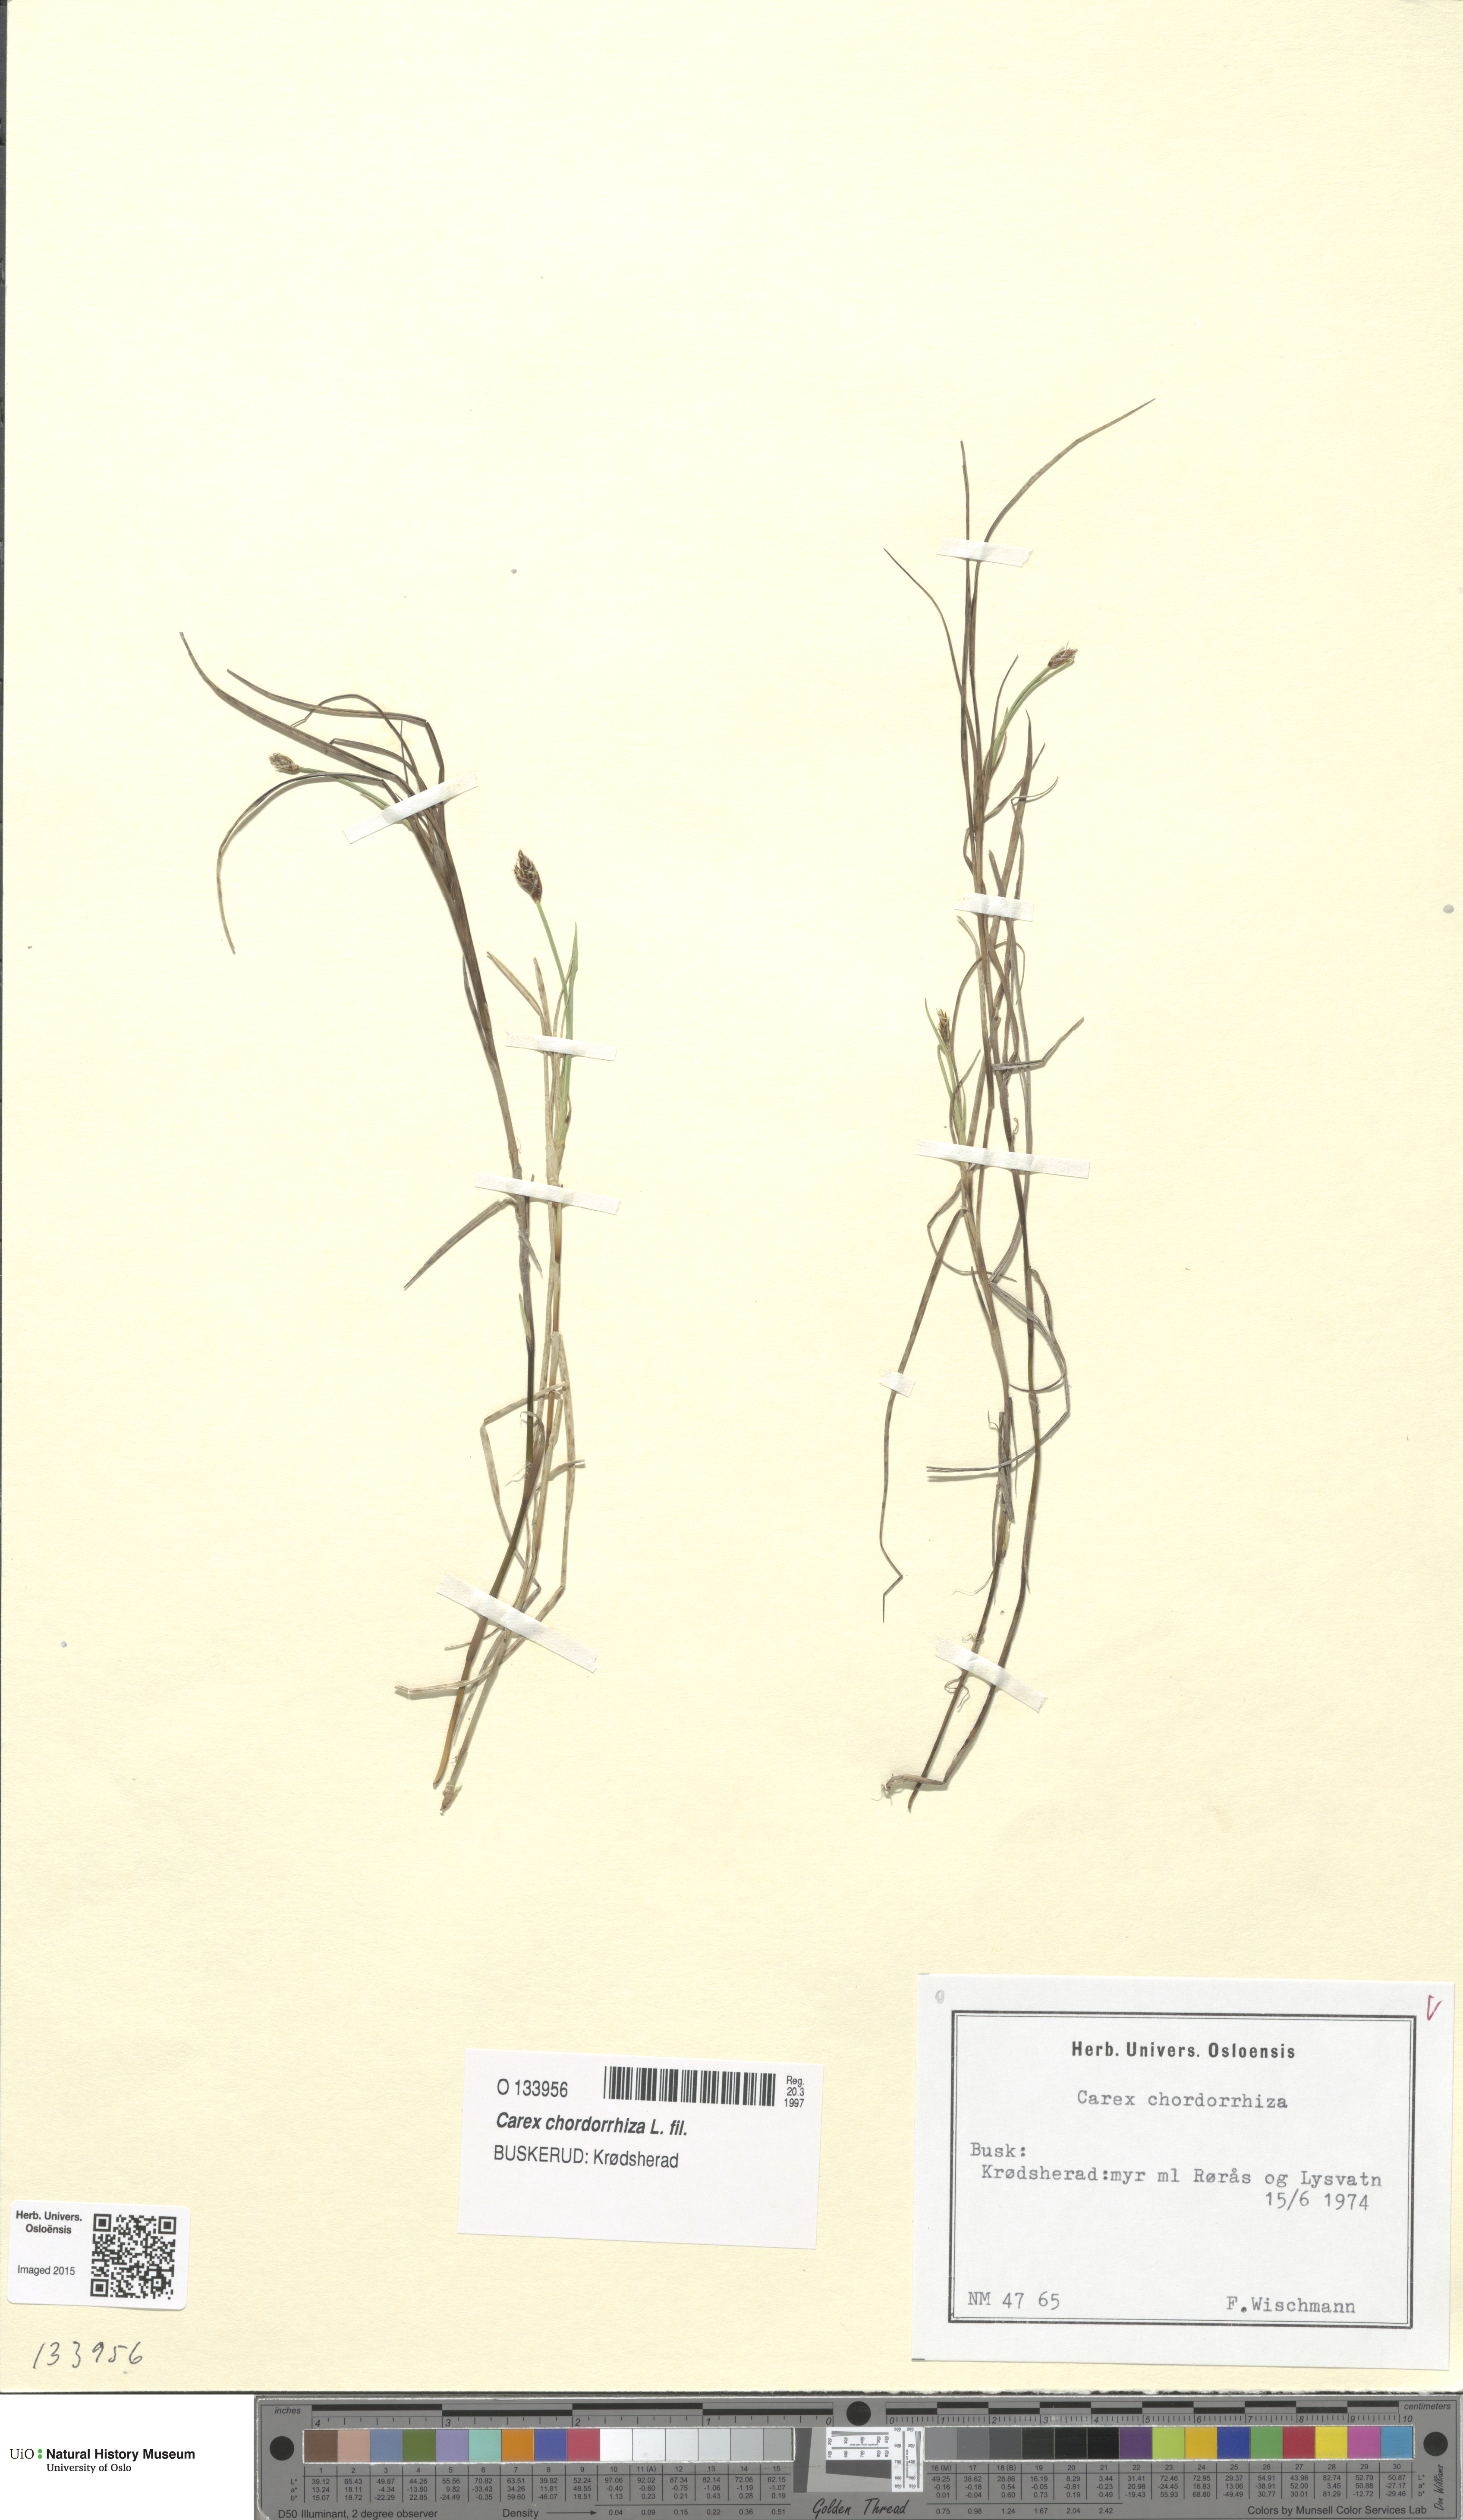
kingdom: Plantae
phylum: Tracheophyta
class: Liliopsida
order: Poales
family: Cyperaceae
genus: Carex
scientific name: Carex chordorrhiza
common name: String sedge
